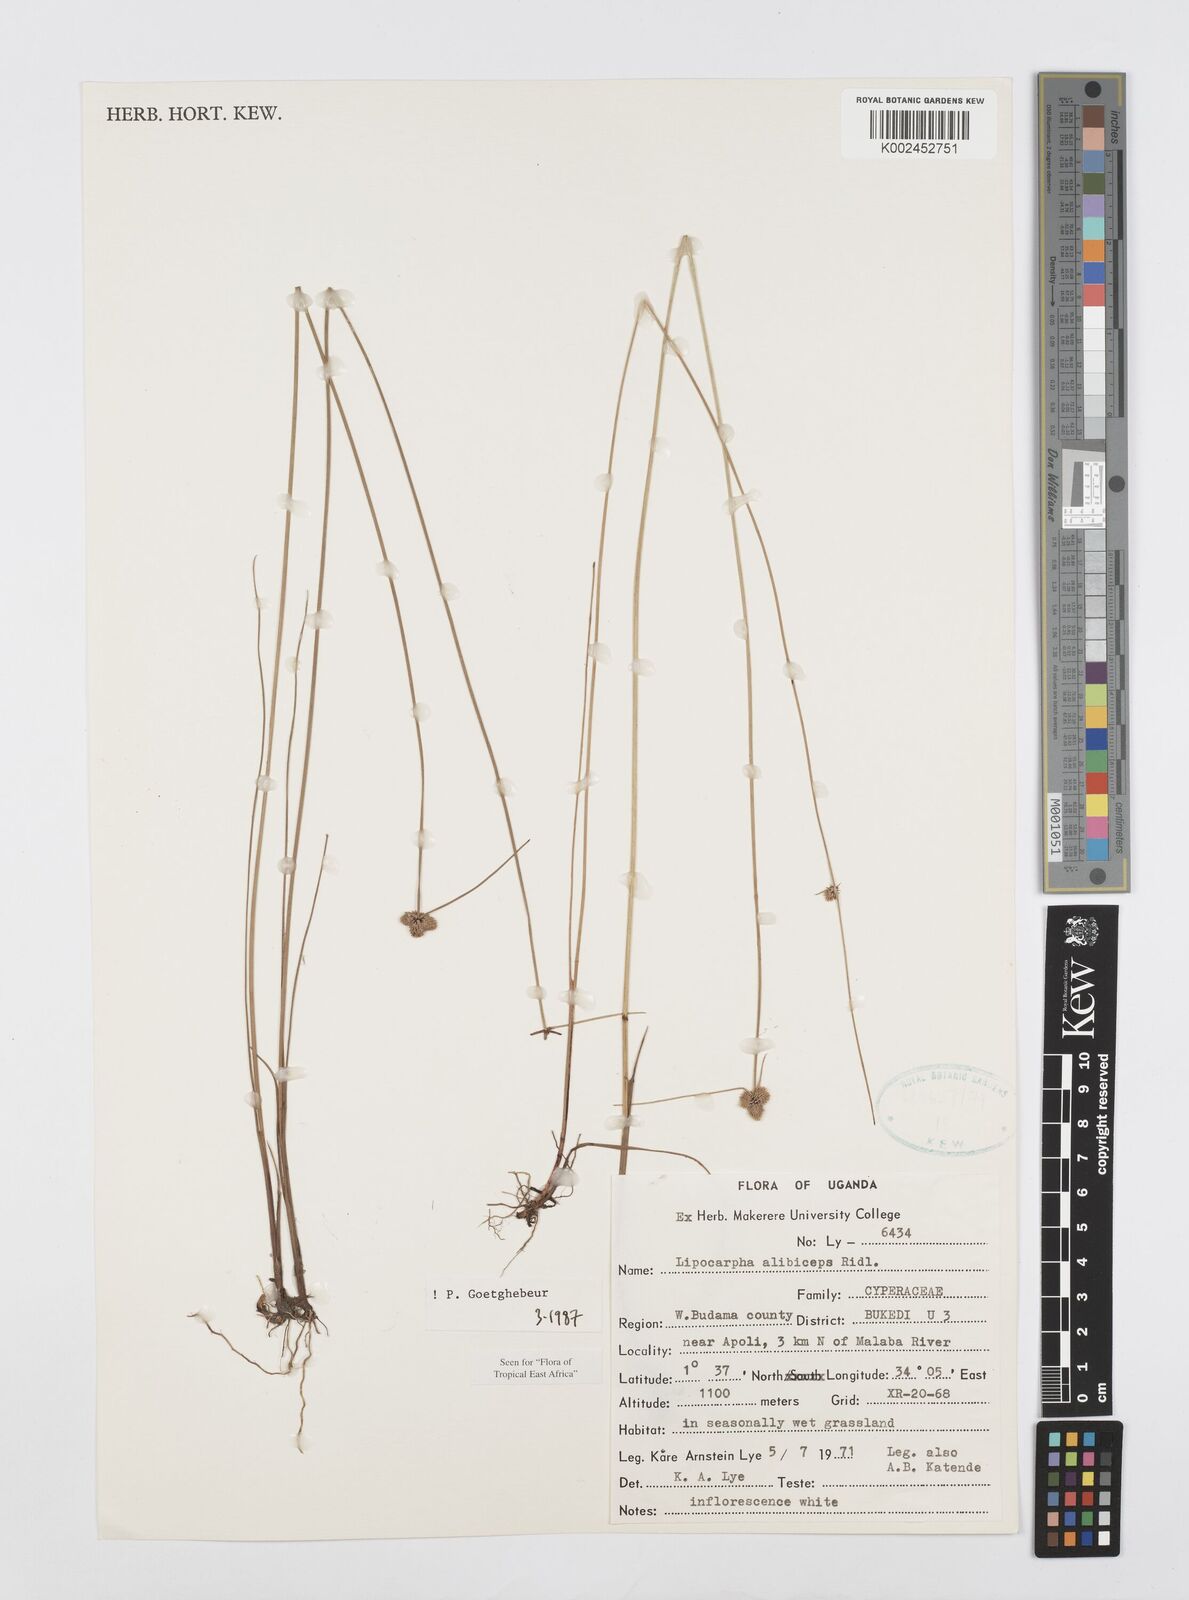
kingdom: Plantae
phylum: Tracheophyta
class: Liliopsida
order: Poales
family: Cyperaceae
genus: Cyperus
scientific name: Cyperus albiceps
